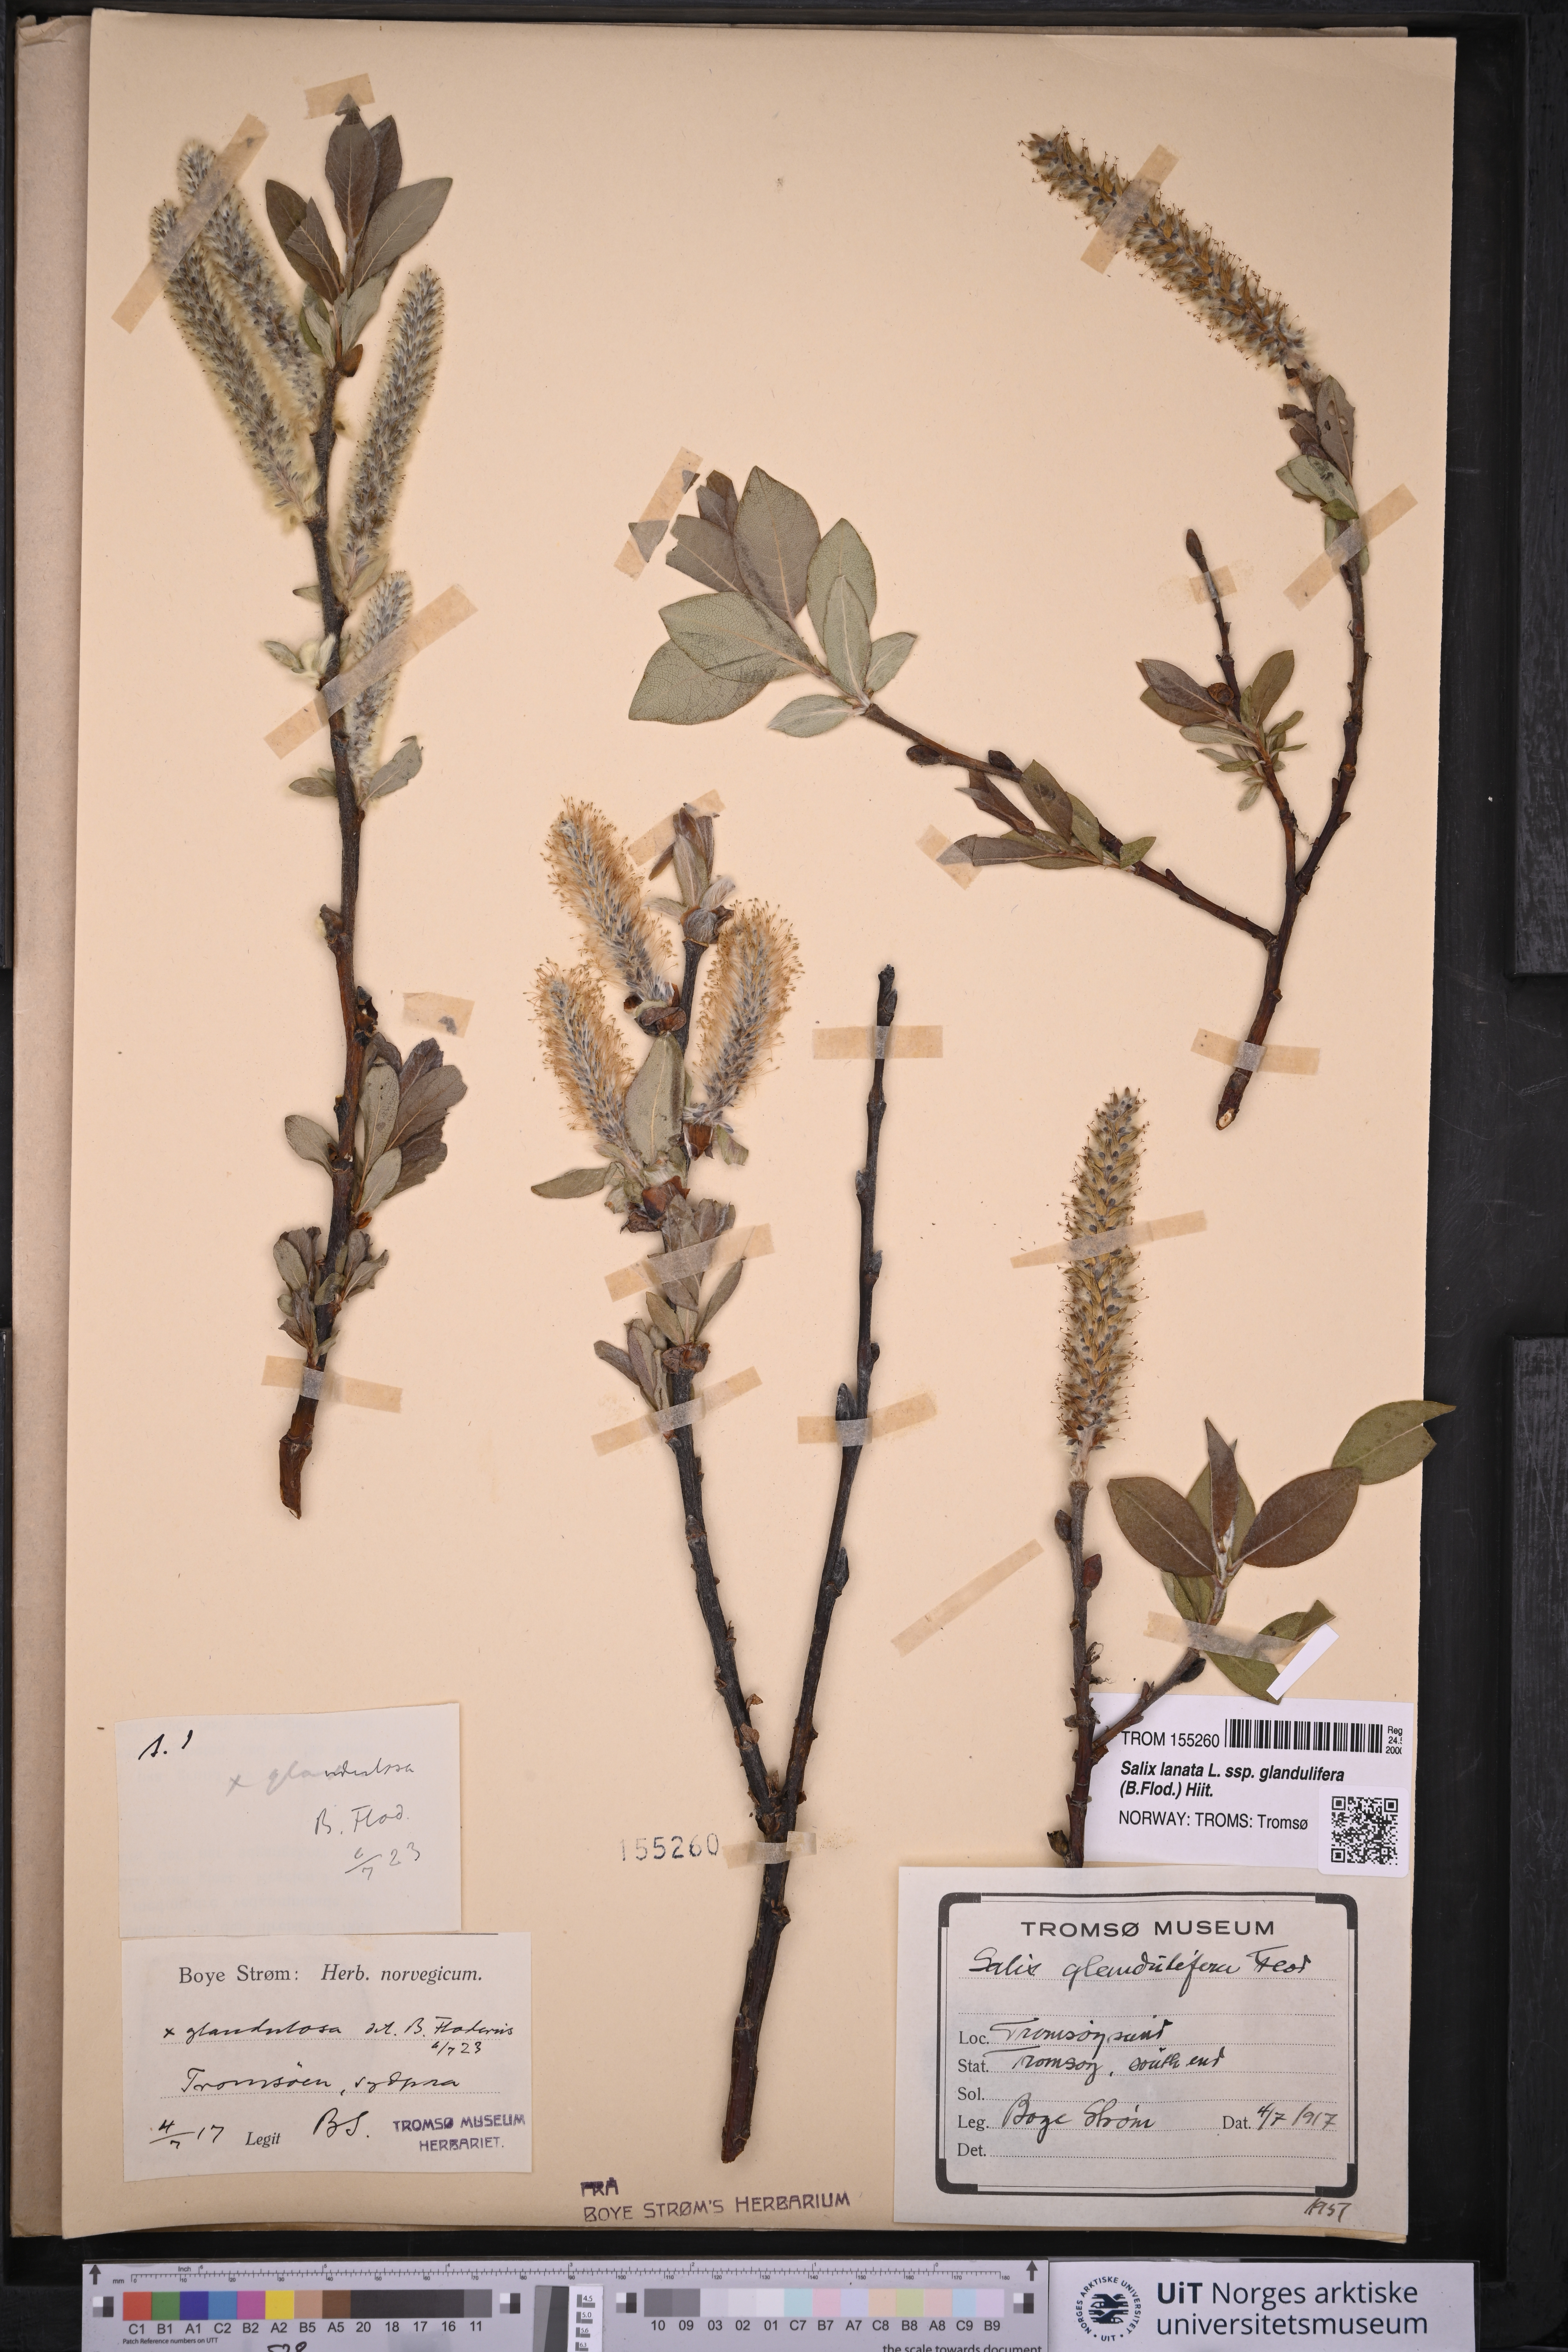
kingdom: Plantae
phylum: Tracheophyta
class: Magnoliopsida
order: Malpighiales
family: Salicaceae
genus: Salix
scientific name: Salix lanata
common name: Woolly willow
